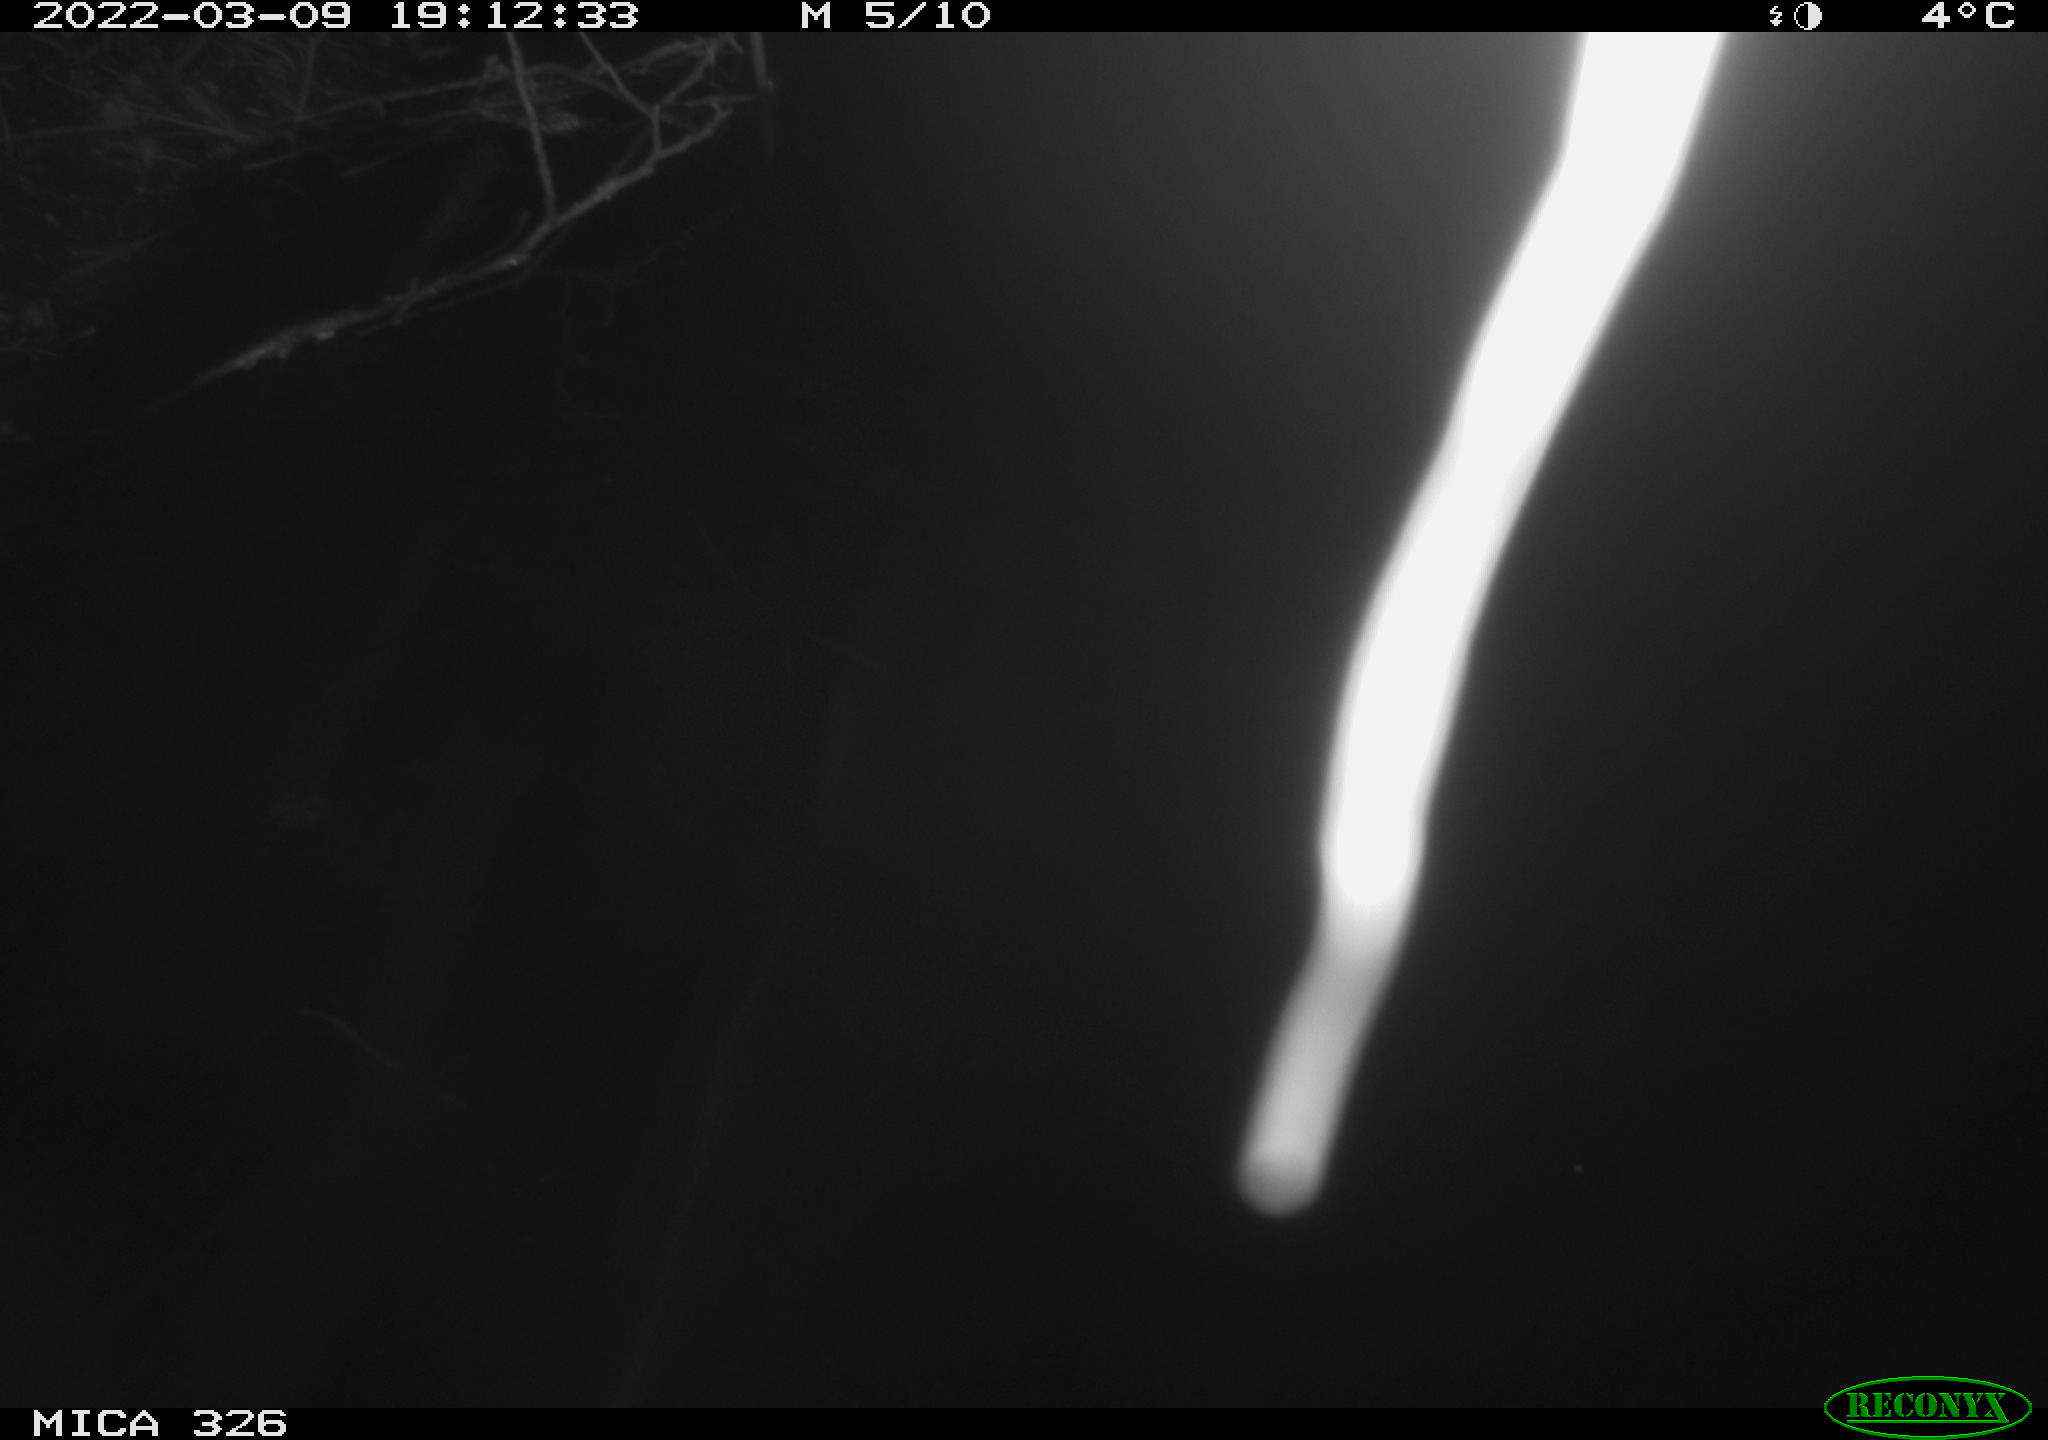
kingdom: Animalia
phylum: Chordata
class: Mammalia
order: Rodentia
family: Muridae
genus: Rattus
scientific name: Rattus norvegicus
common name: Brown rat
